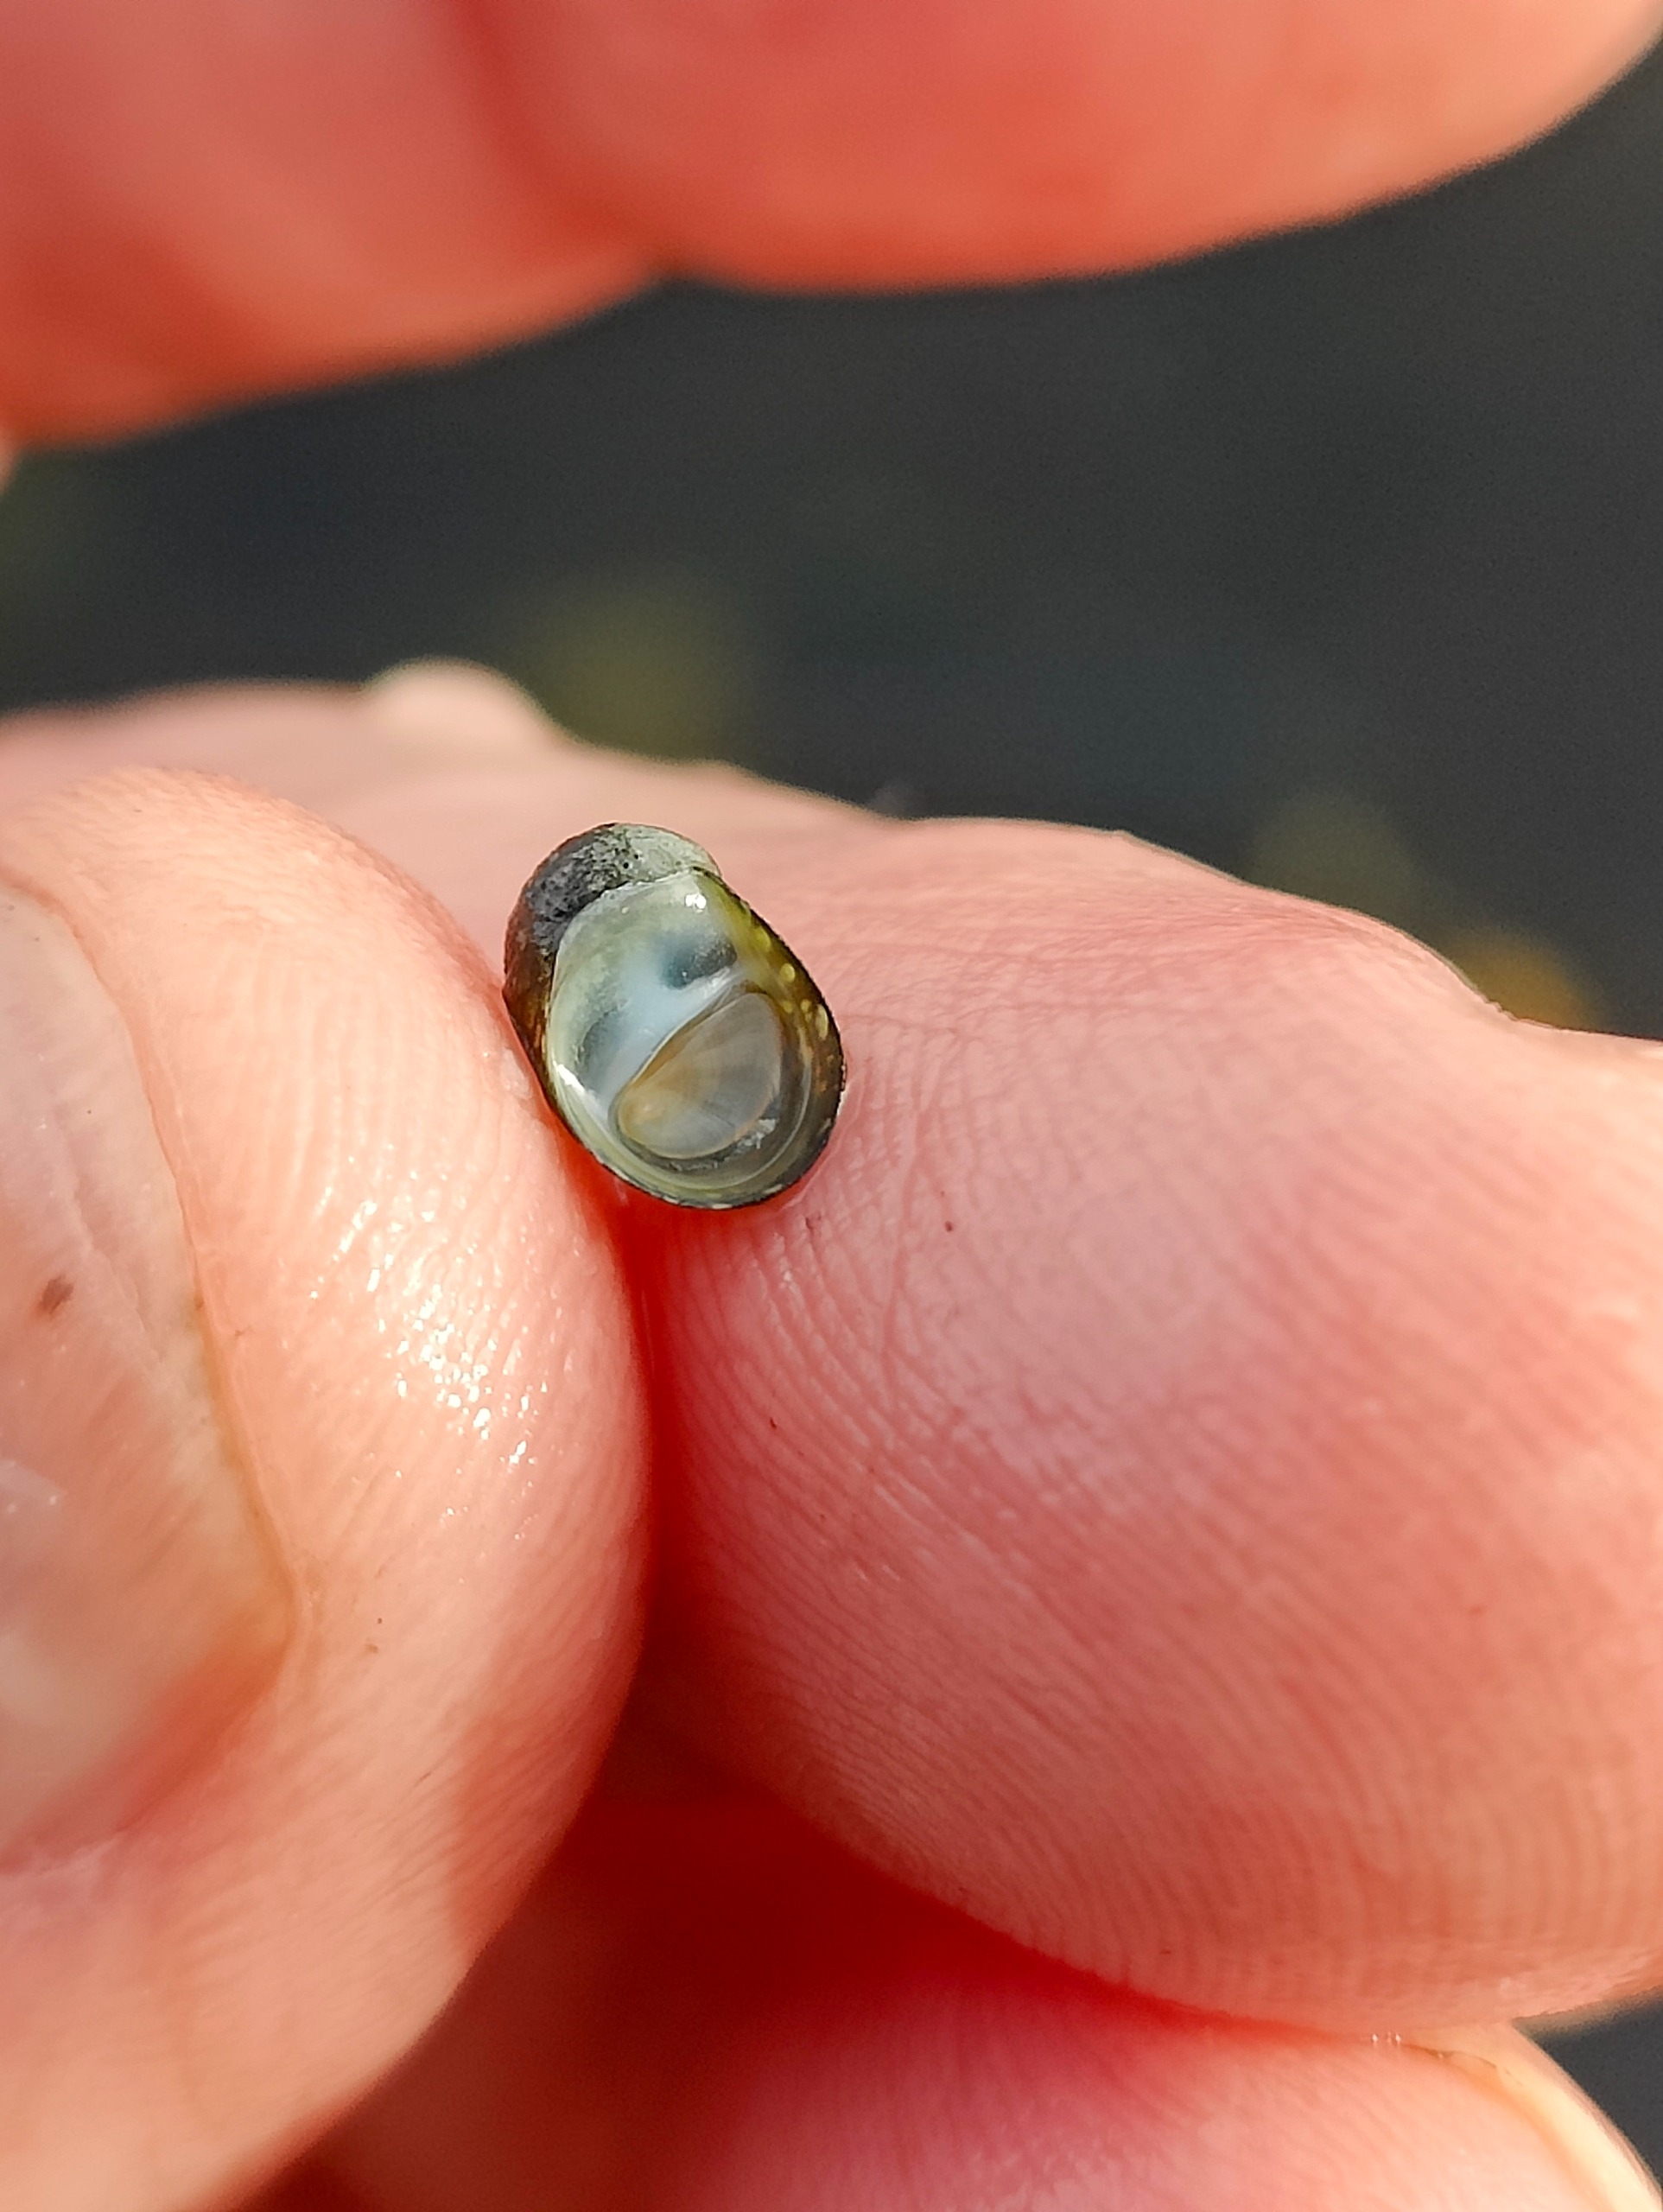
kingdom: Animalia
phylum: Mollusca
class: Gastropoda
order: Cycloneritida
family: Neritidae
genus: Theodoxus
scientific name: Theodoxus fluviatilis
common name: Flodnerit
